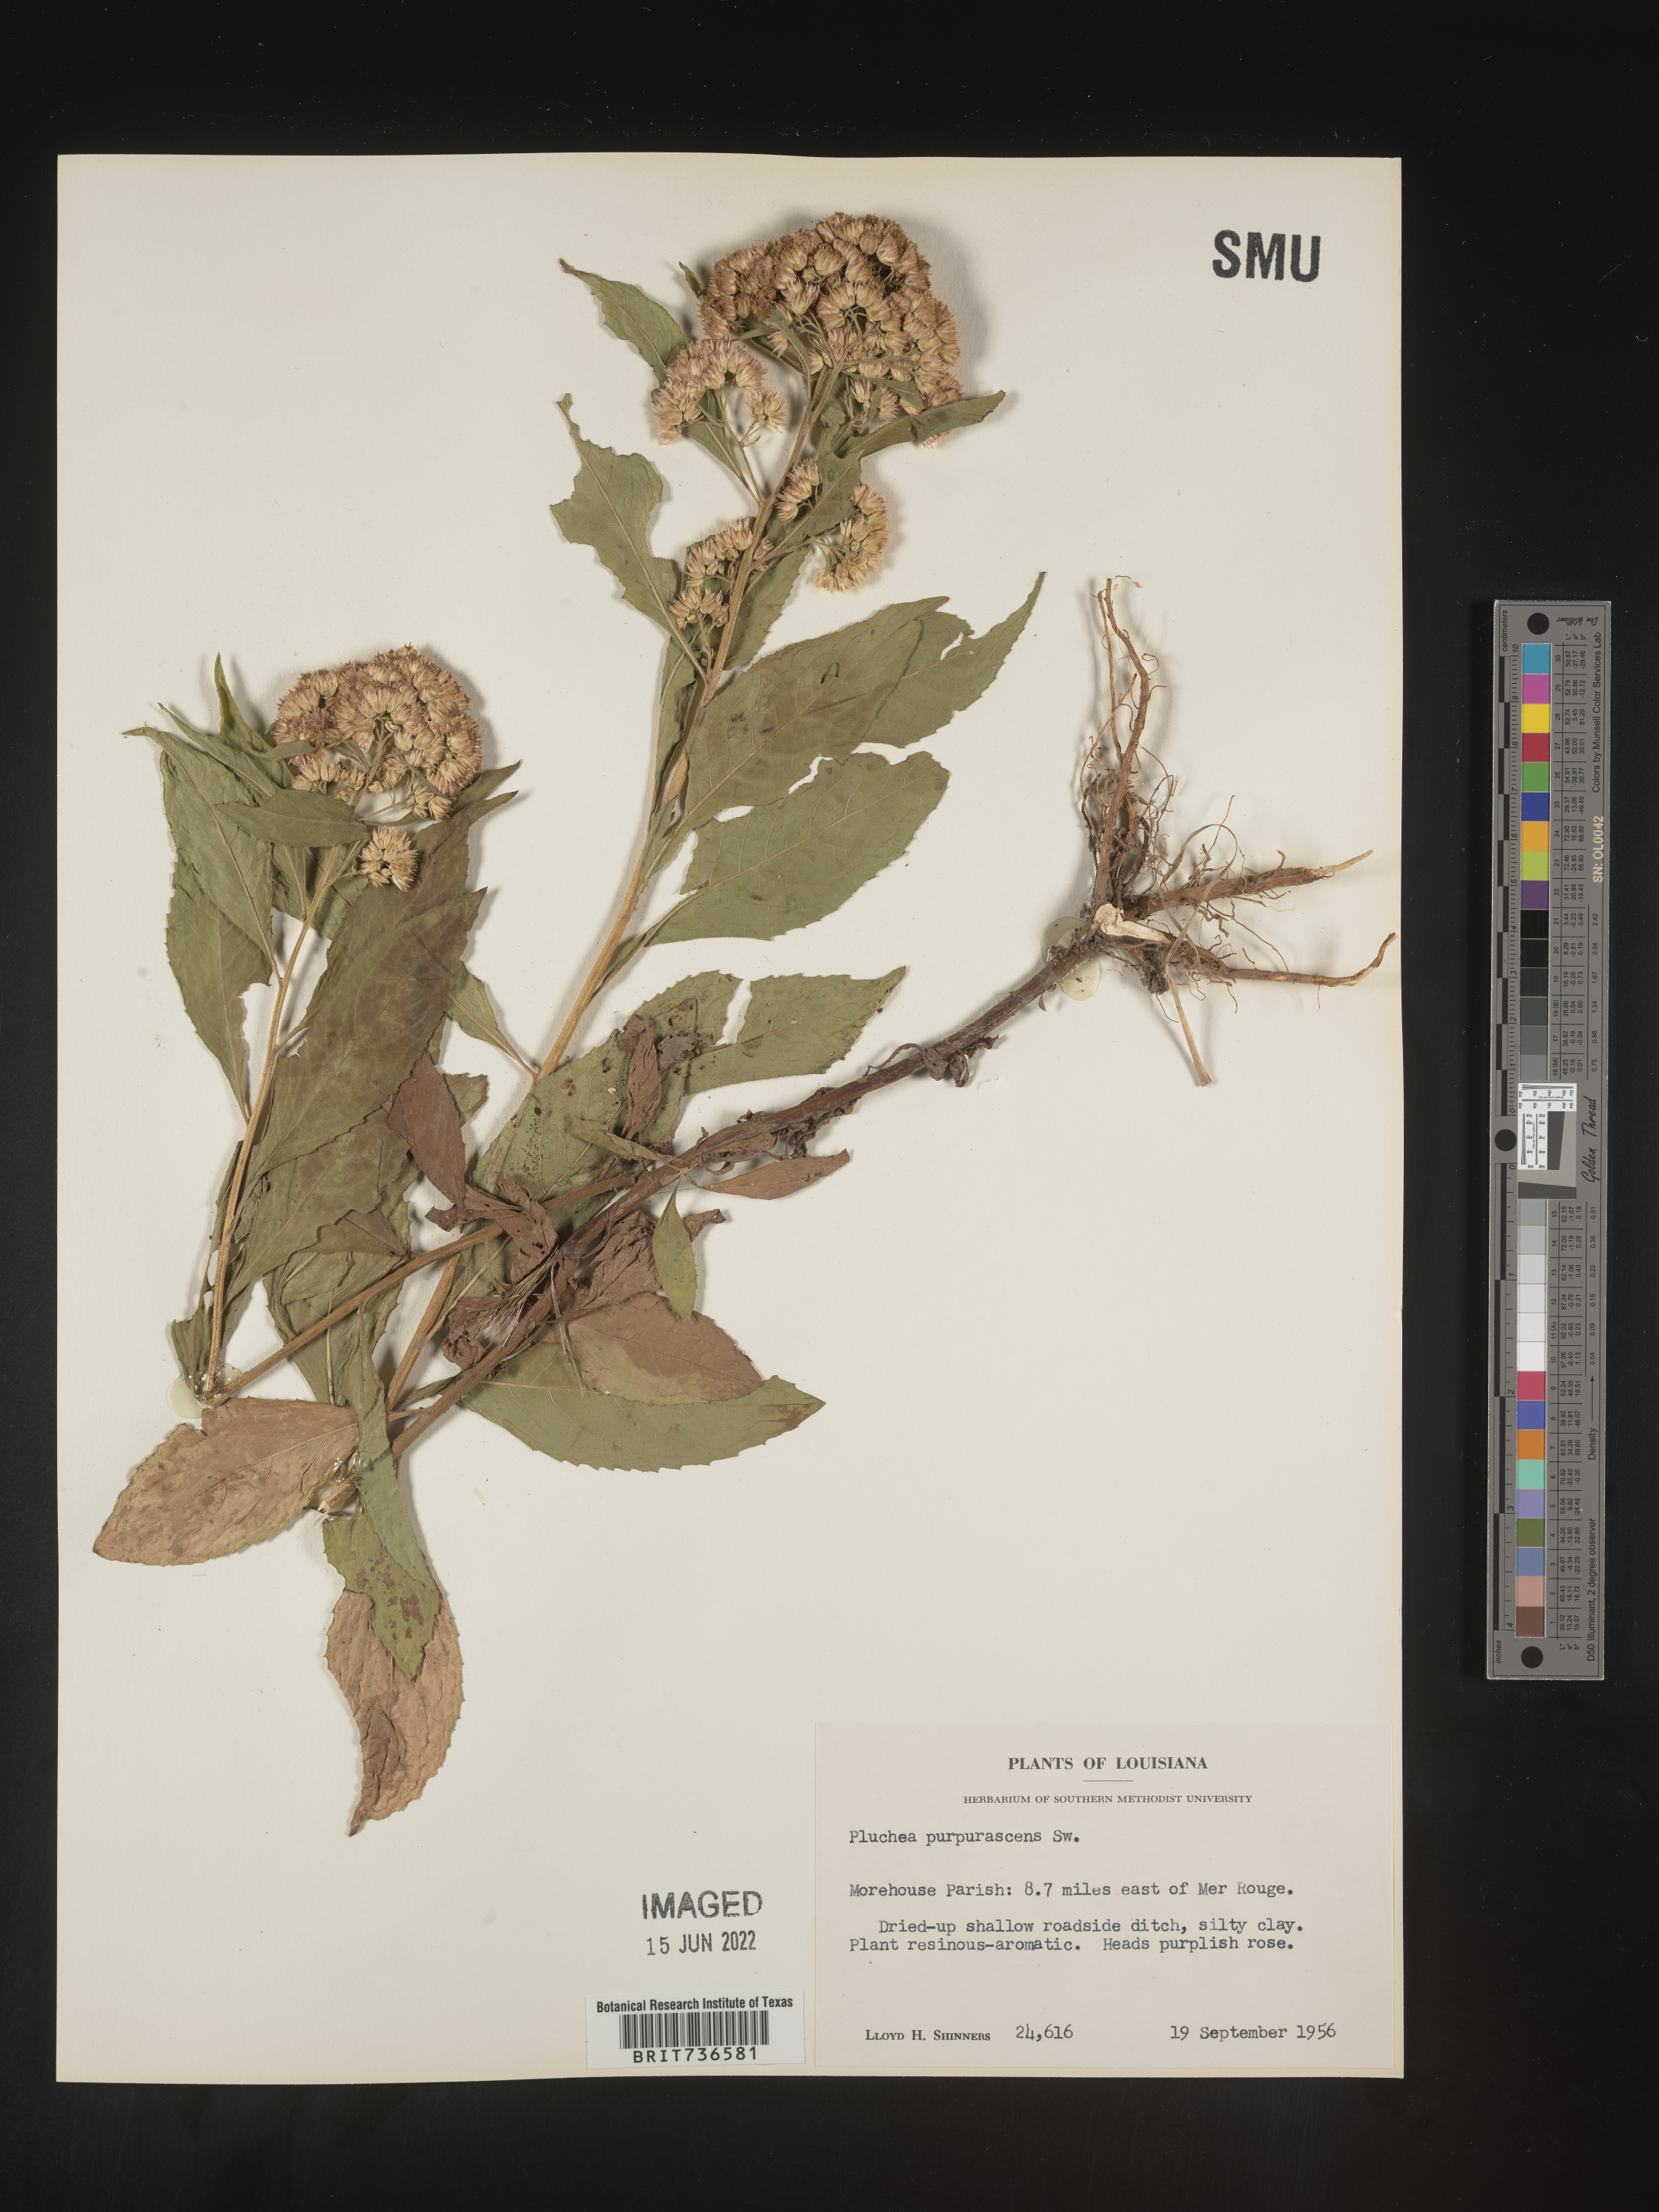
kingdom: Plantae
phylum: Tracheophyta
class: Magnoliopsida
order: Asterales
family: Asteraceae
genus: Pluchea
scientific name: Pluchea camphorata
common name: Camphor pluchea
